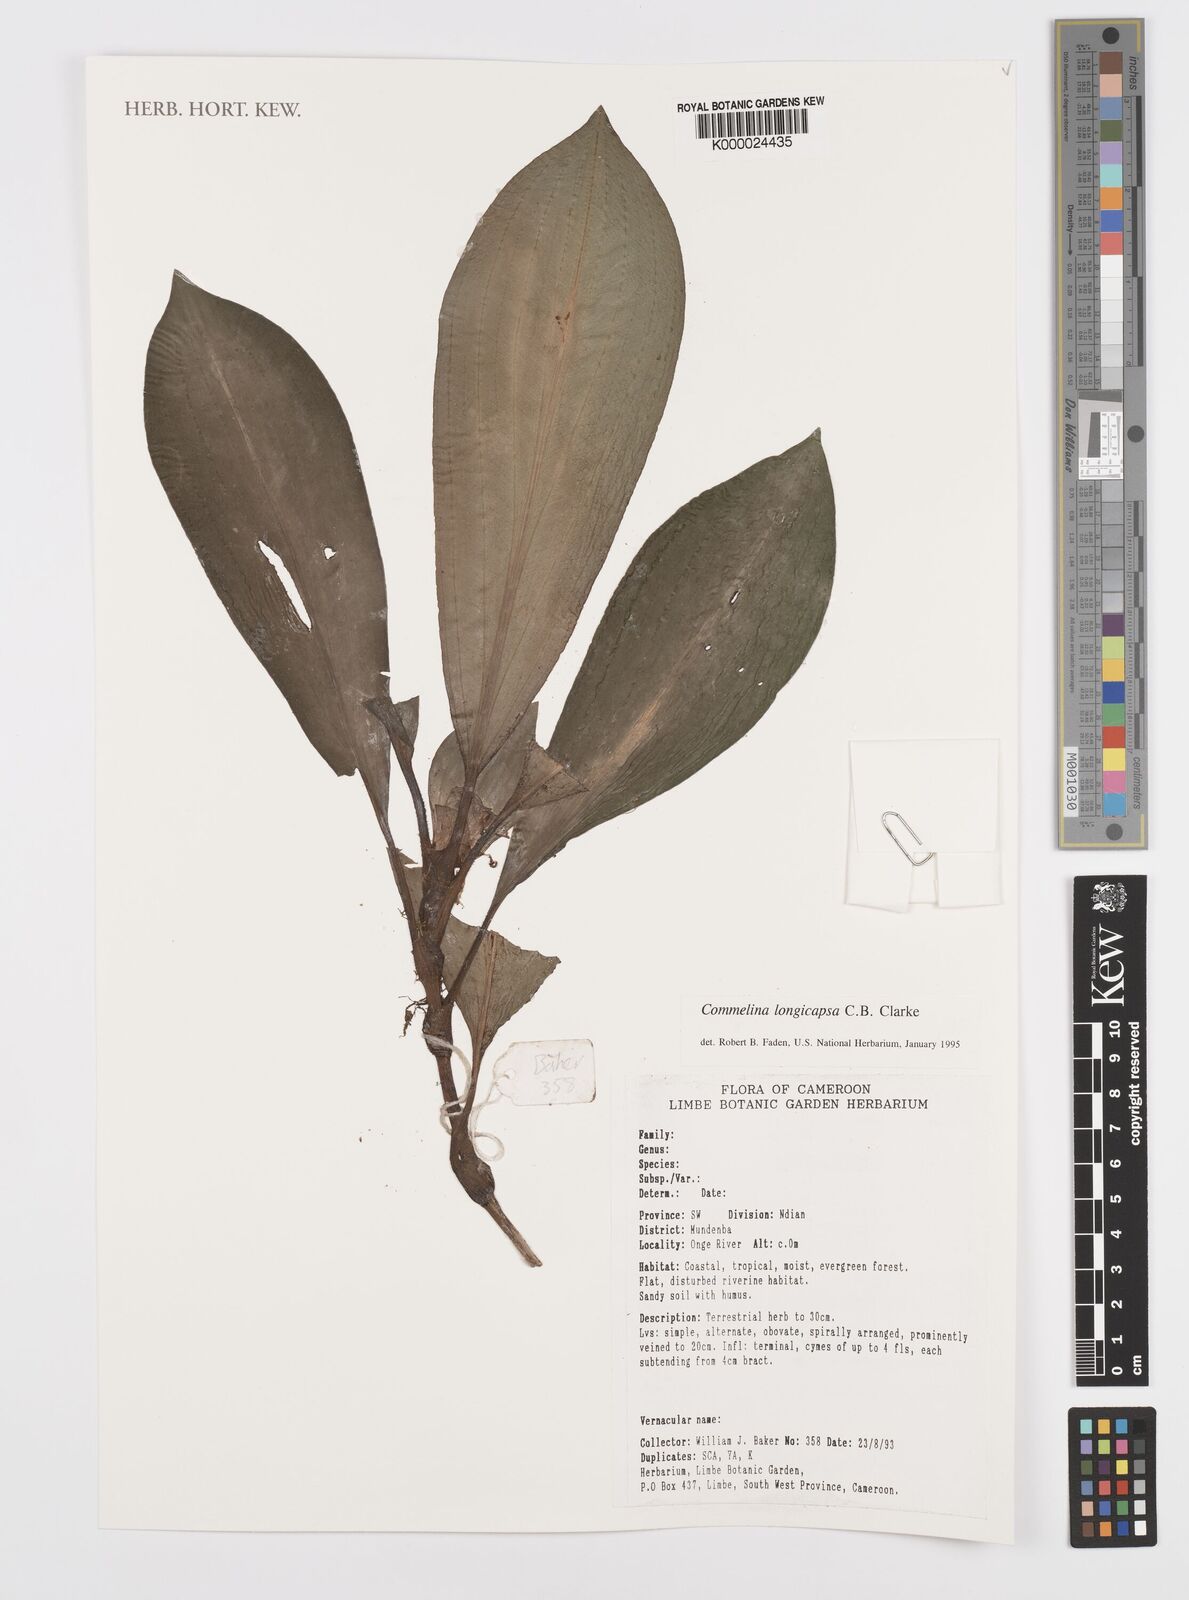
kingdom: Plantae
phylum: Tracheophyta
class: Liliopsida
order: Commelinales
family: Commelinaceae
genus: Commelina
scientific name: Commelina longicapsa
